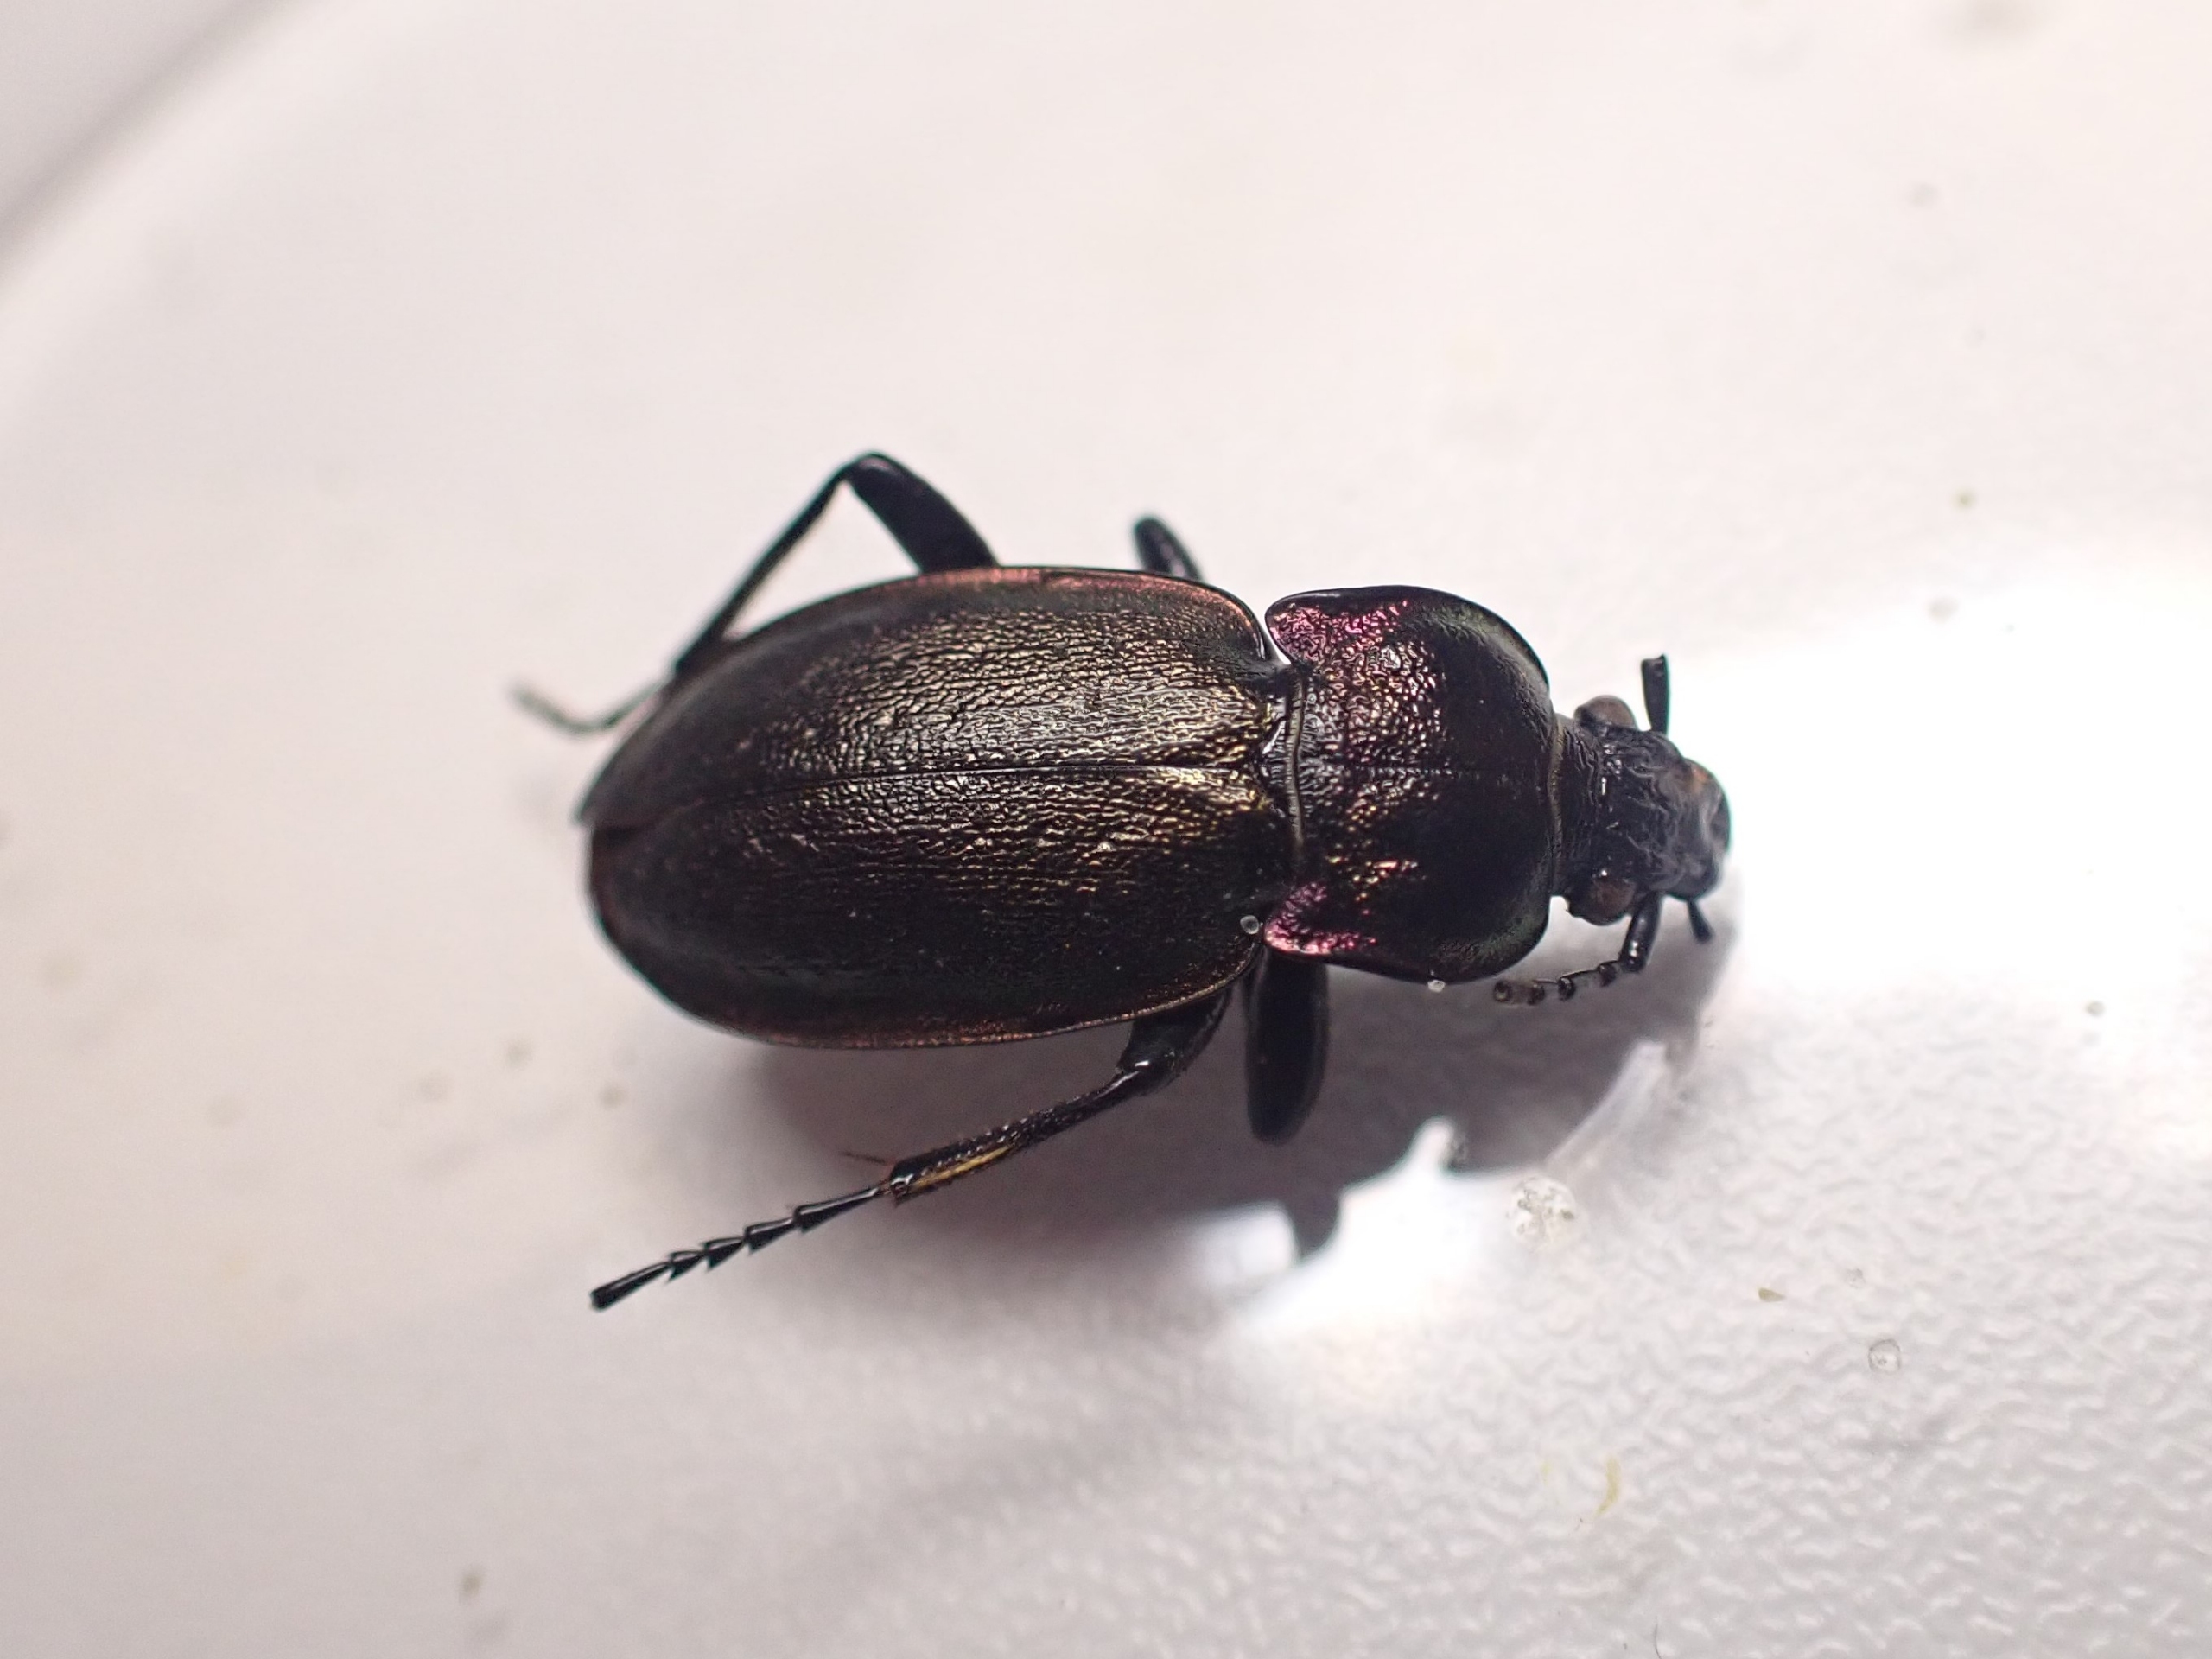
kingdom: Animalia
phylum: Arthropoda
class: Insecta
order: Coleoptera
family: Carabidae
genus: Carabus
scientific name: Carabus problematicus
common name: Jysk løber
